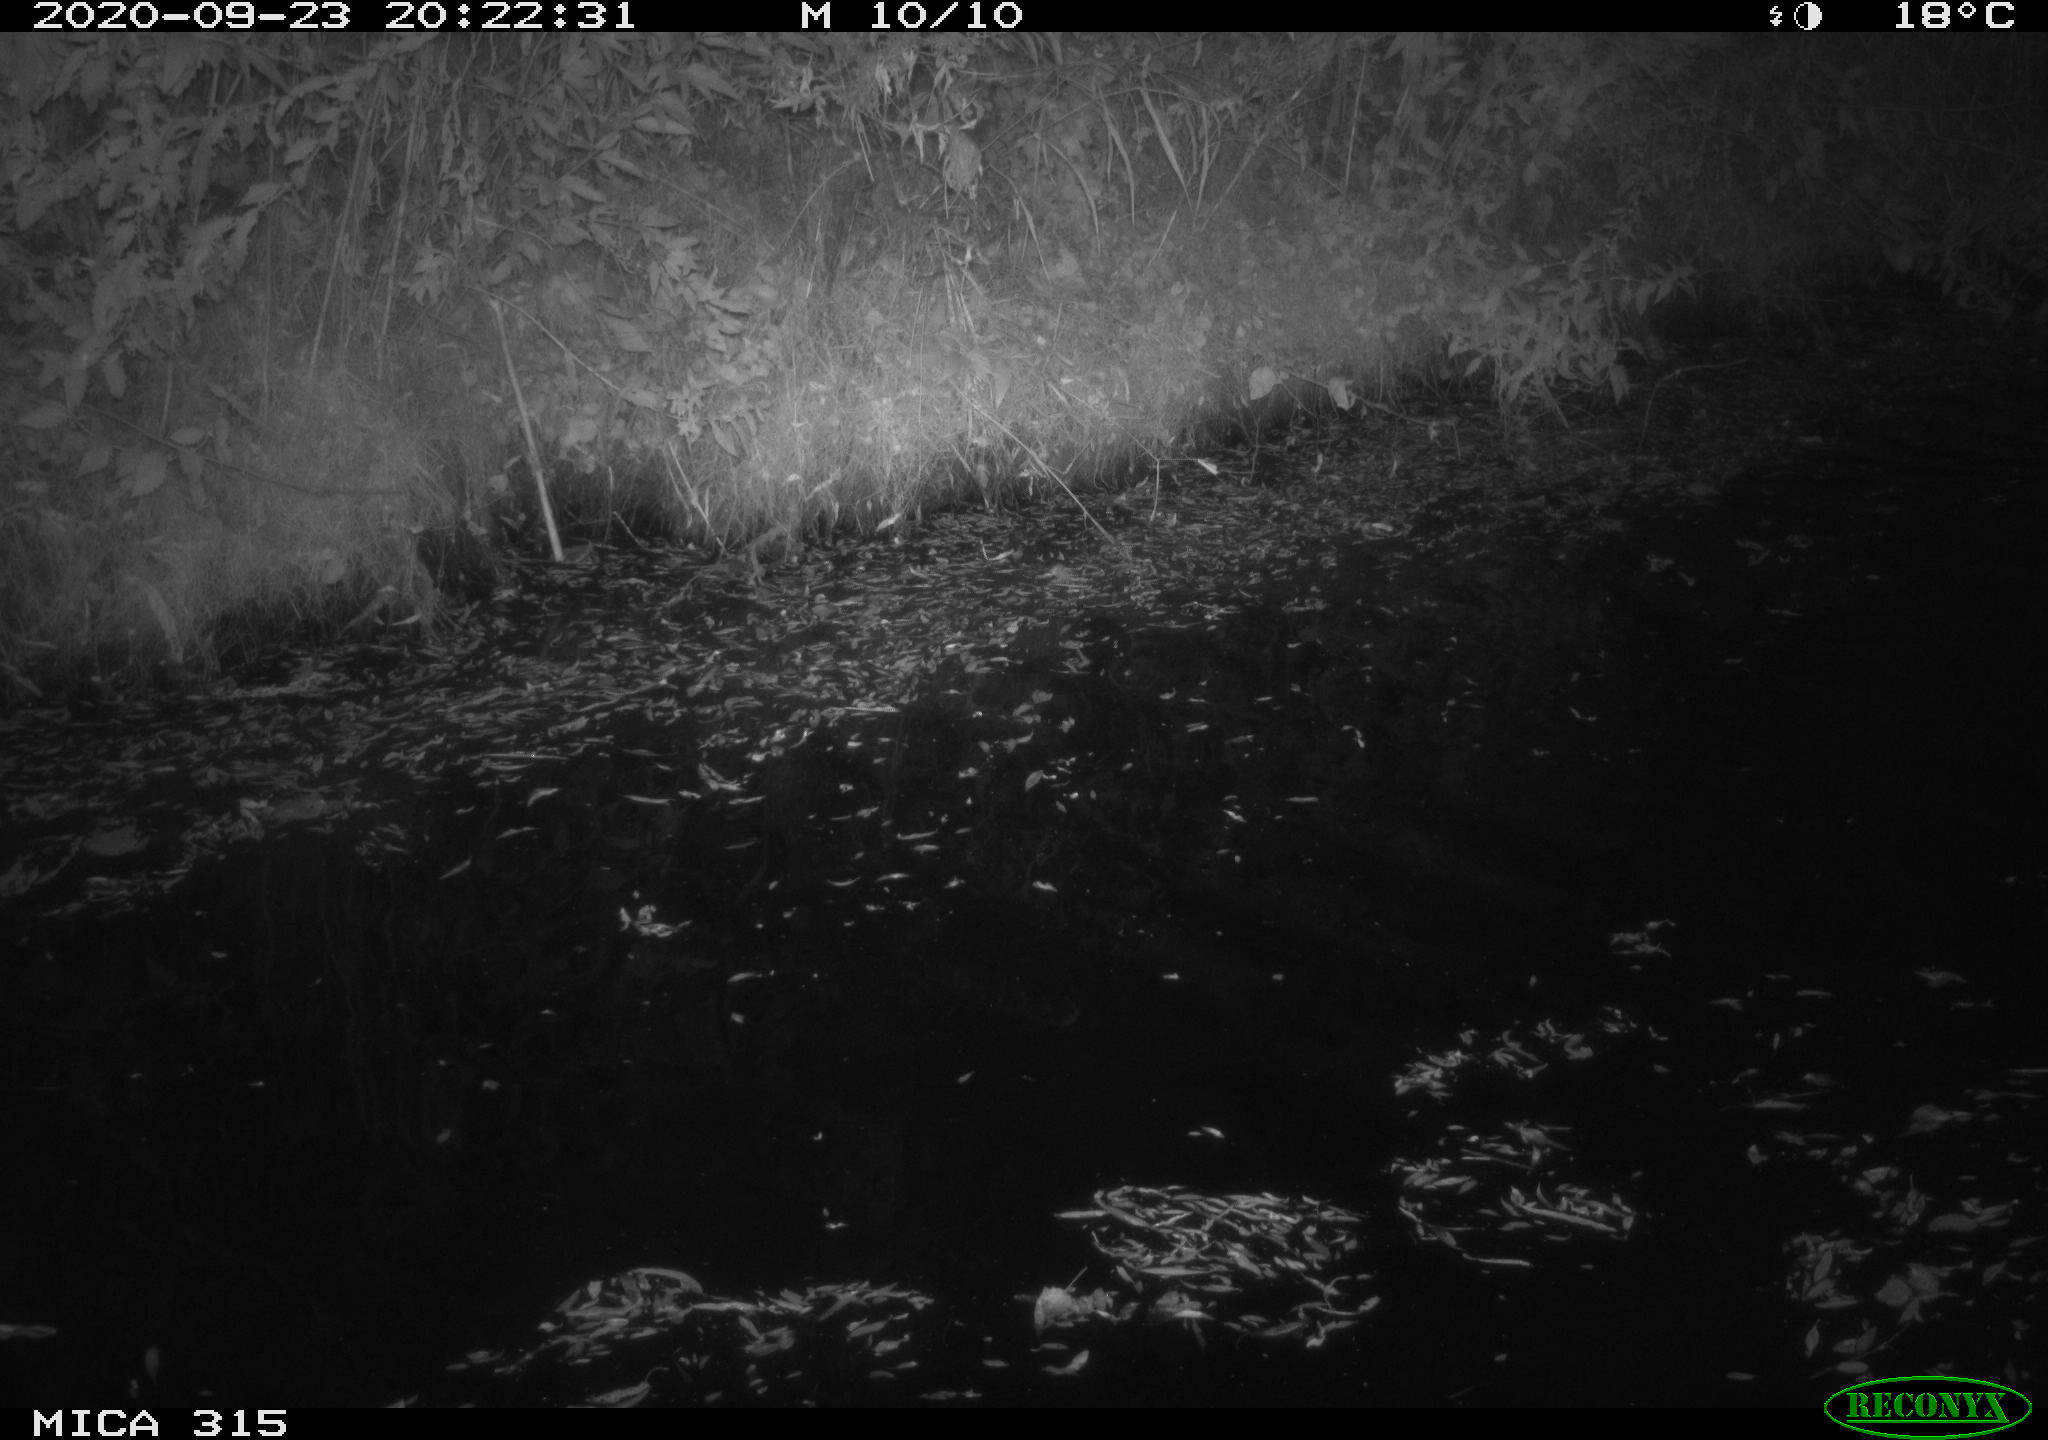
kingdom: Animalia
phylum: Chordata
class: Aves
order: Anseriformes
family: Anatidae
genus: Anas
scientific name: Anas platyrhynchos
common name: Mallard
